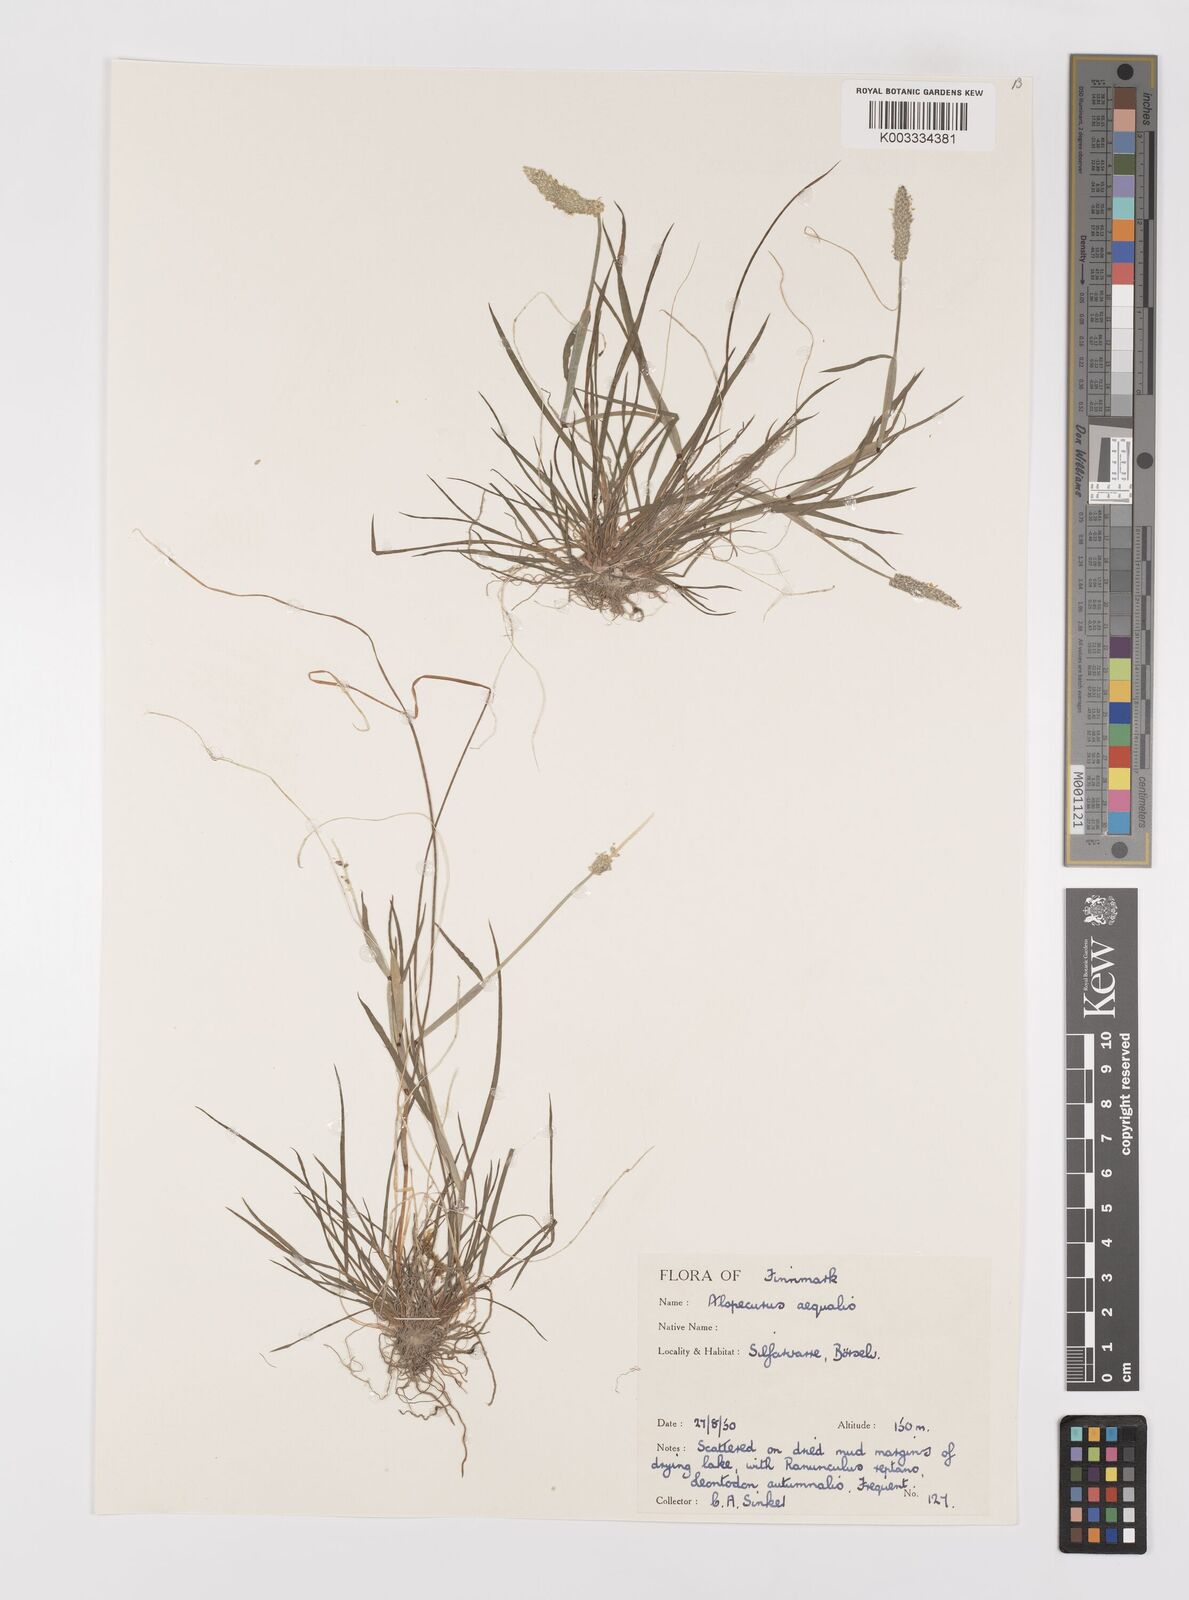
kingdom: Plantae
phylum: Tracheophyta
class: Liliopsida
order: Poales
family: Poaceae
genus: Alopecurus
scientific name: Alopecurus aequalis
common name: Orange foxtail
